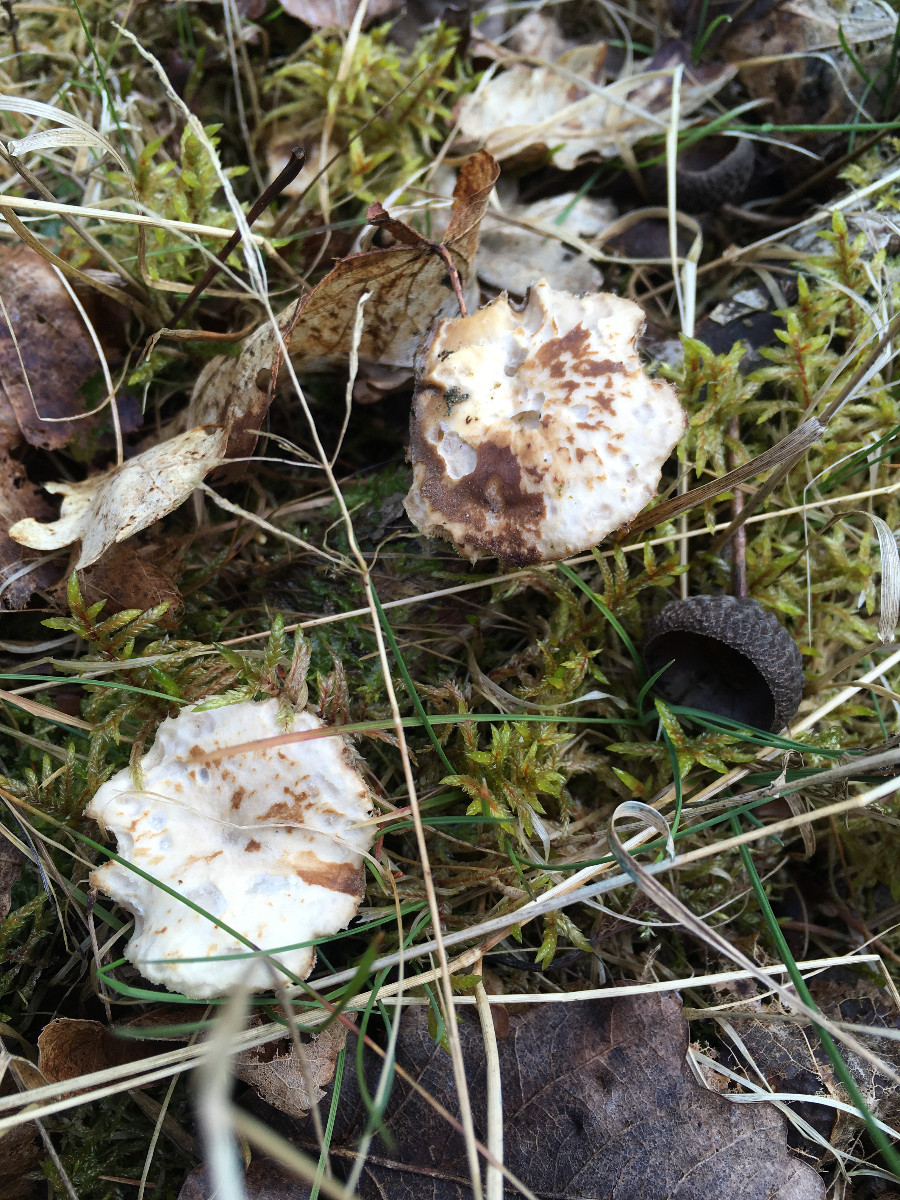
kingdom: Fungi
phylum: Basidiomycota
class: Agaricomycetes
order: Polyporales
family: Polyporaceae
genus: Lentinus
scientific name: Lentinus brumalis
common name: vinter-stilkporesvamp
